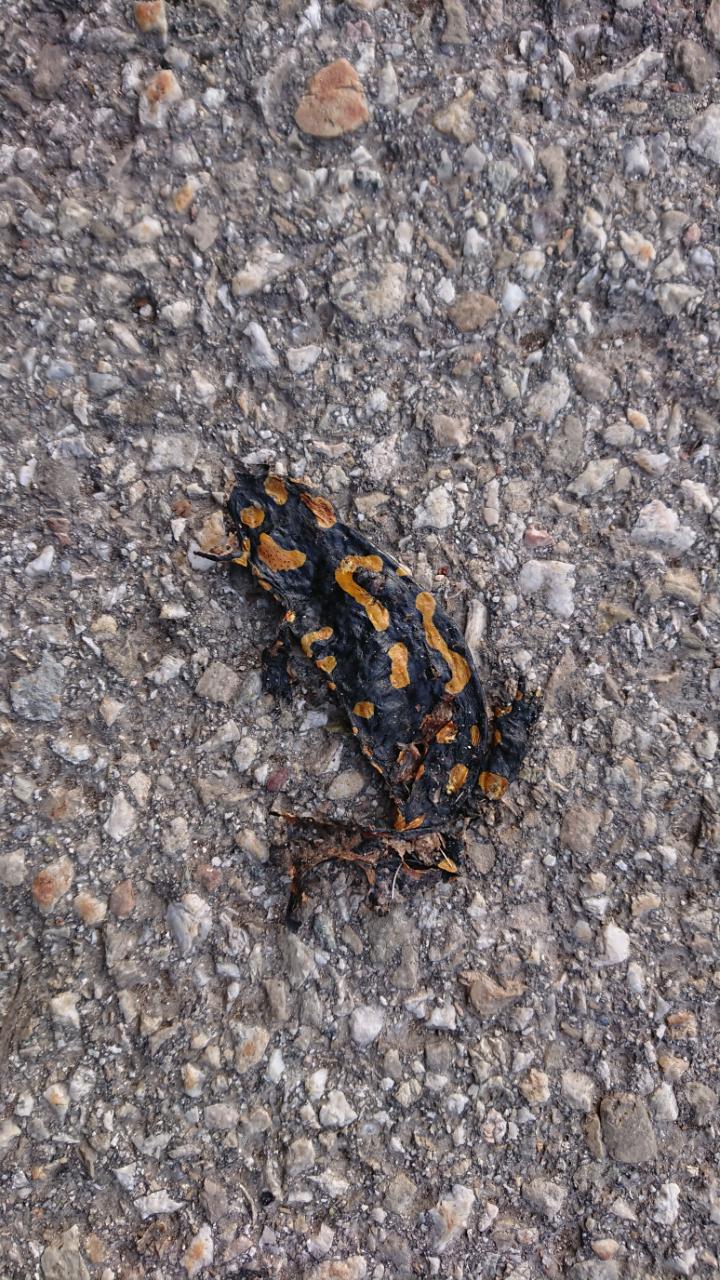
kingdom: Animalia
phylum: Chordata
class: Amphibia
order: Caudata
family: Salamandridae
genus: Salamandra
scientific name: Salamandra salamandra
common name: Fire salamander
